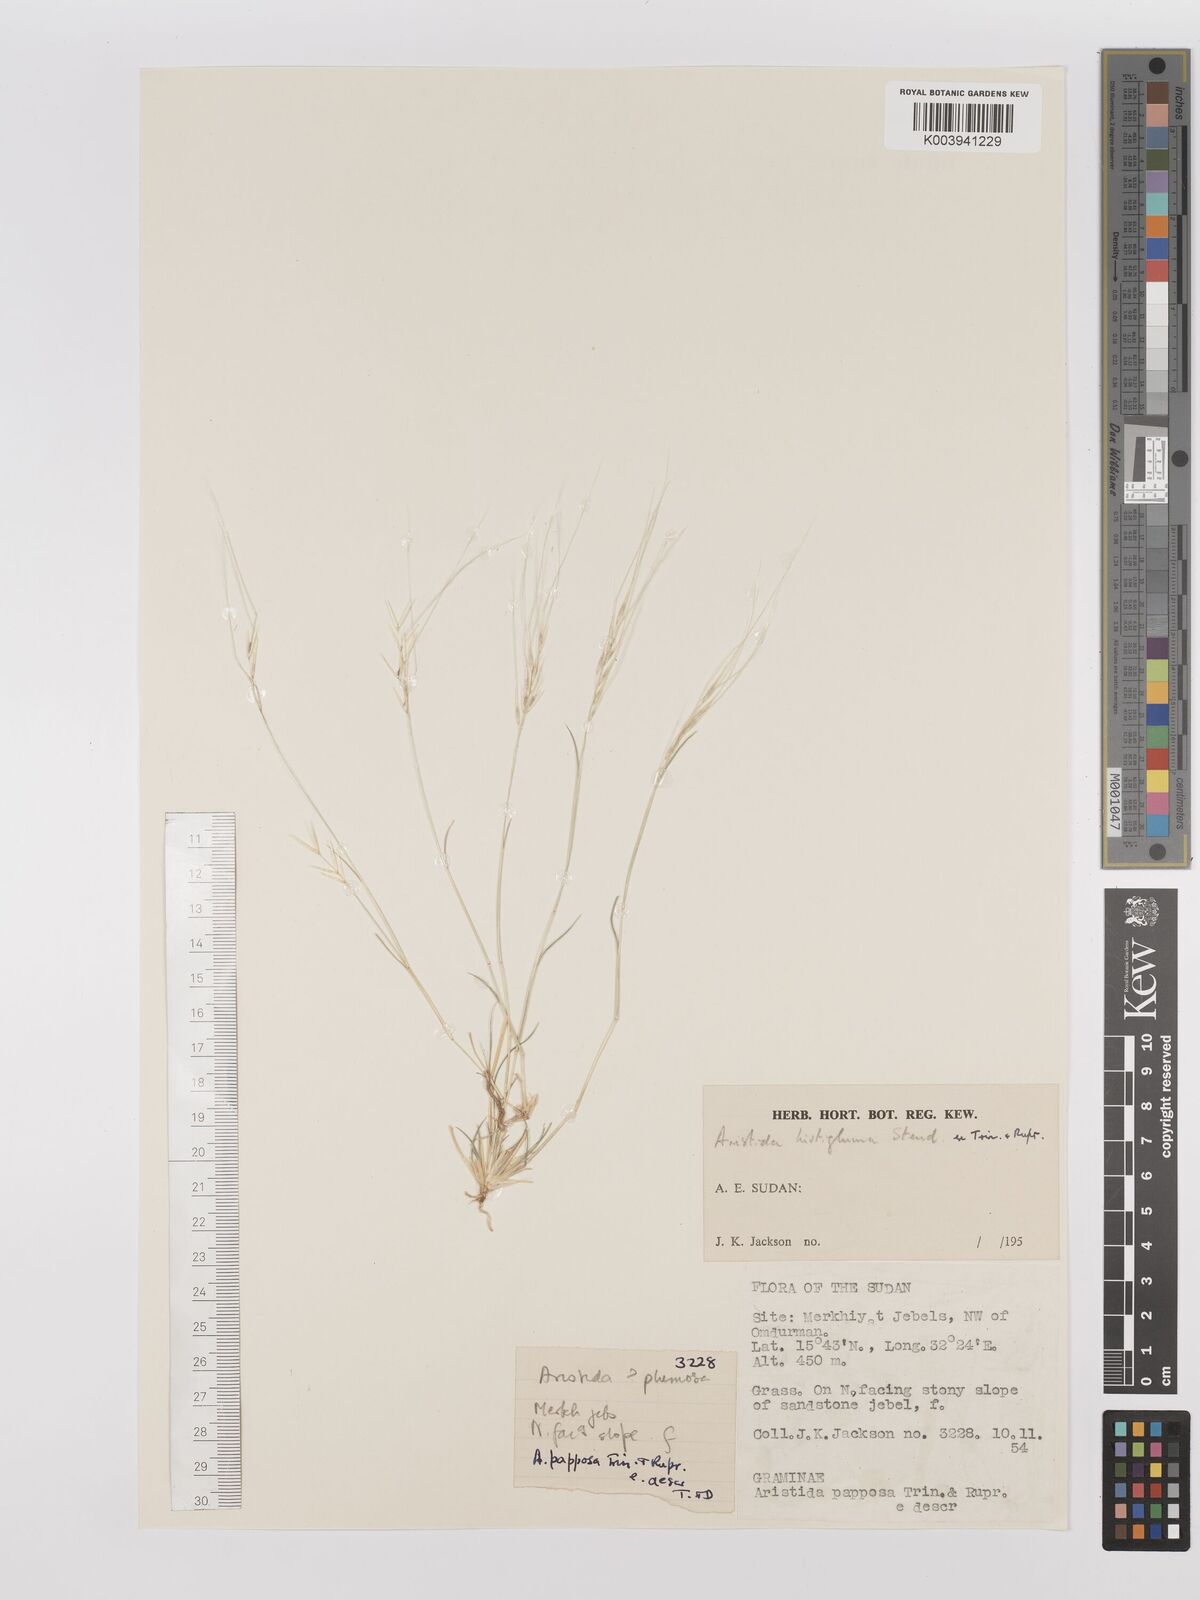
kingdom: Plantae
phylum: Tracheophyta
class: Liliopsida
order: Poales
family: Poaceae
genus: Stipagrostis
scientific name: Stipagrostis uniplumis
